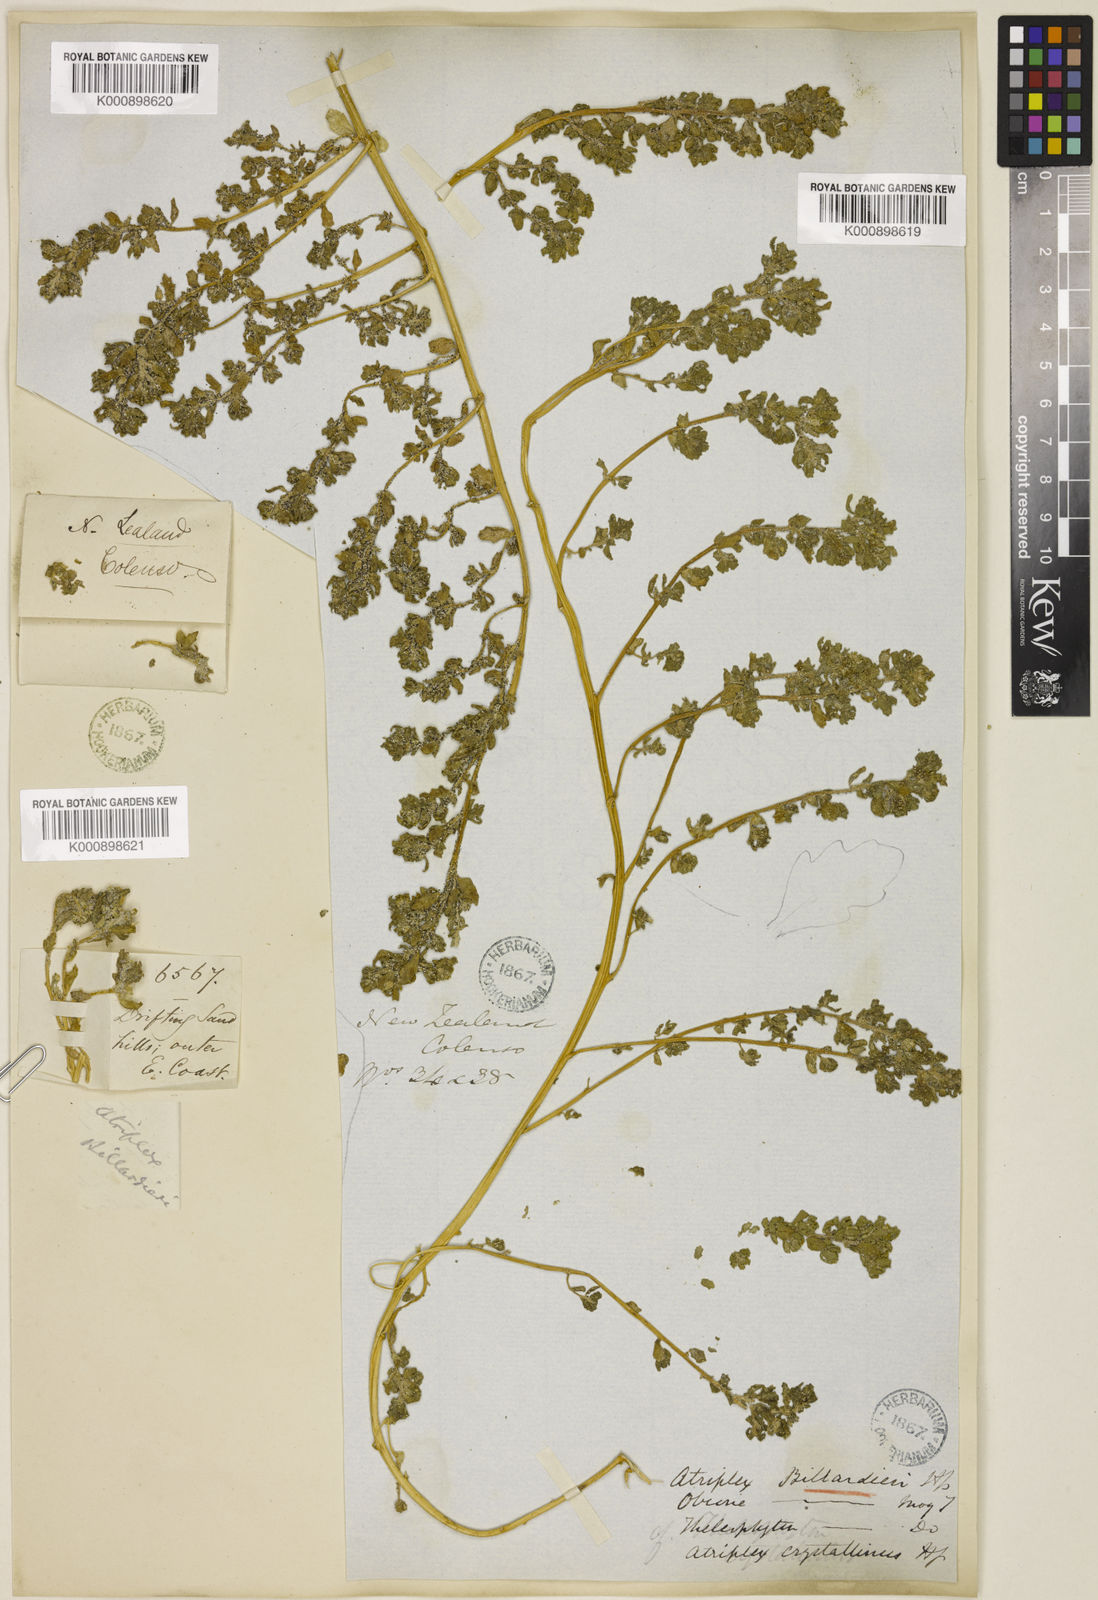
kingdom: Plantae
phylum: Tracheophyta
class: Magnoliopsida
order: Caryophyllales
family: Amaranthaceae
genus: Atriplex
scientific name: Atriplex billardierei
